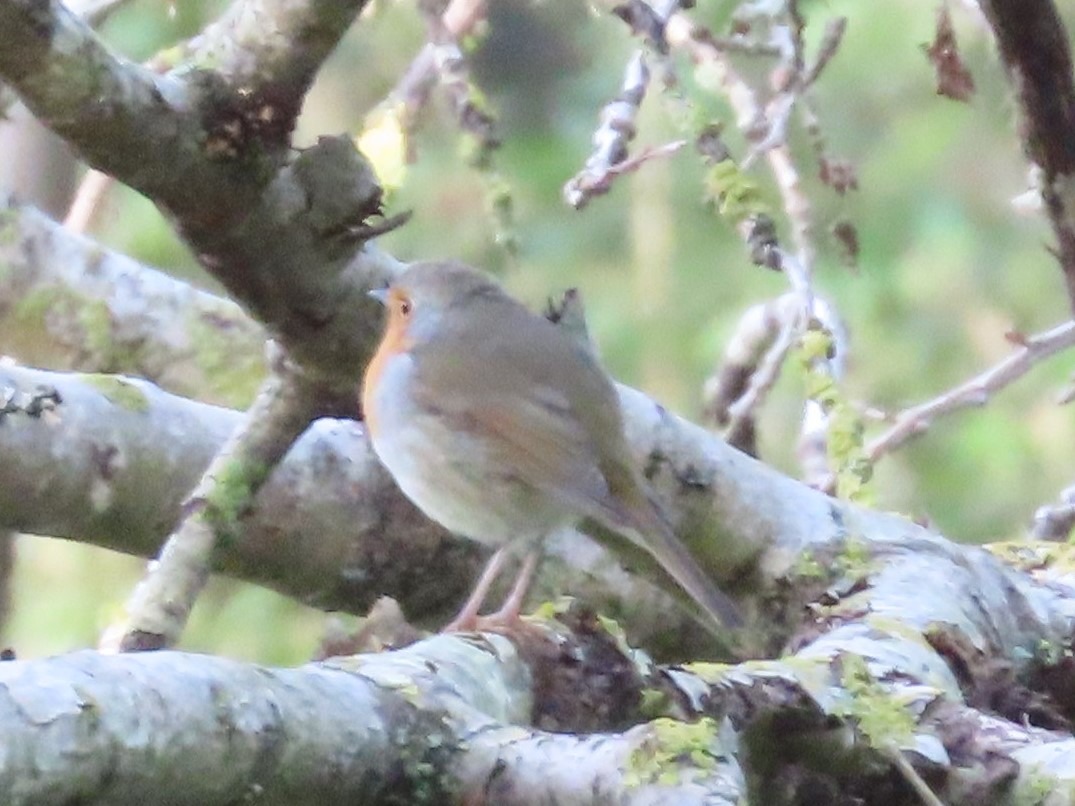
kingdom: Animalia
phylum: Chordata
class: Aves
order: Passeriformes
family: Muscicapidae
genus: Erithacus
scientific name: Erithacus rubecula
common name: Rødhals/rødkælk
